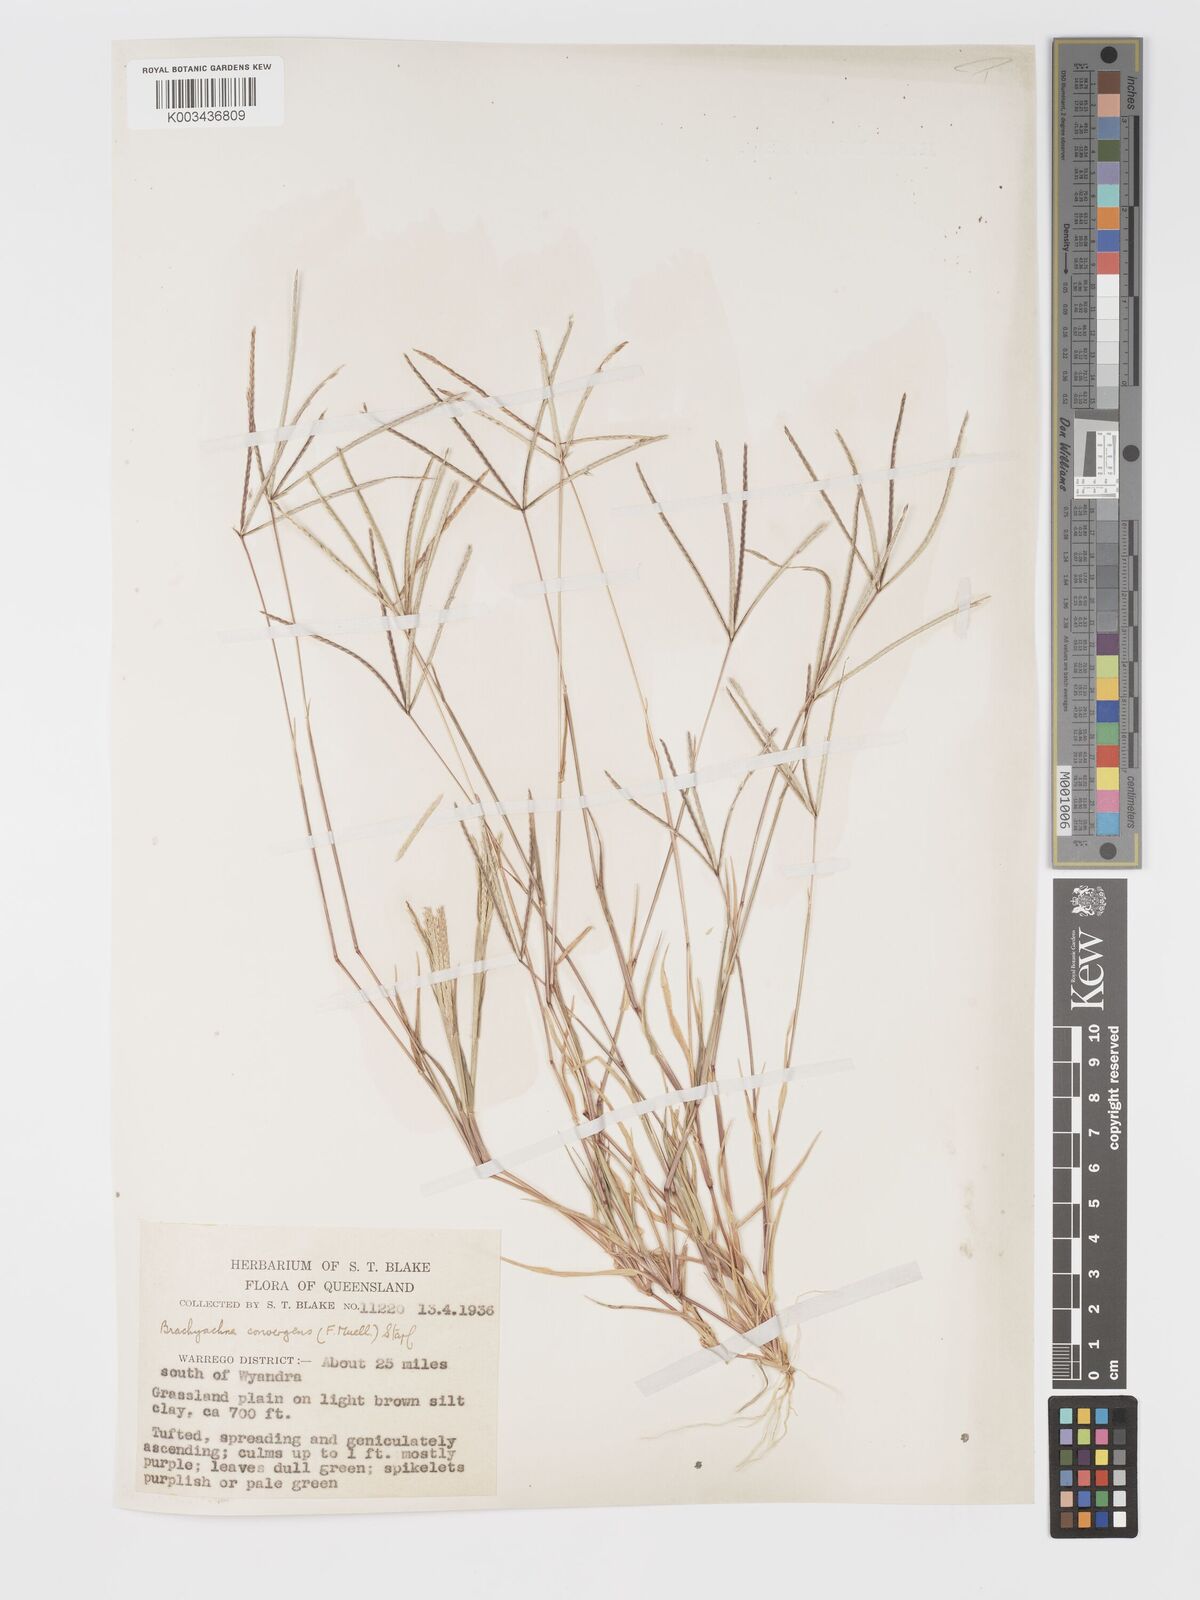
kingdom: Plantae
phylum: Tracheophyta
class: Liliopsida
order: Poales
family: Poaceae
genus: Cynodon
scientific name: Cynodon convergens
